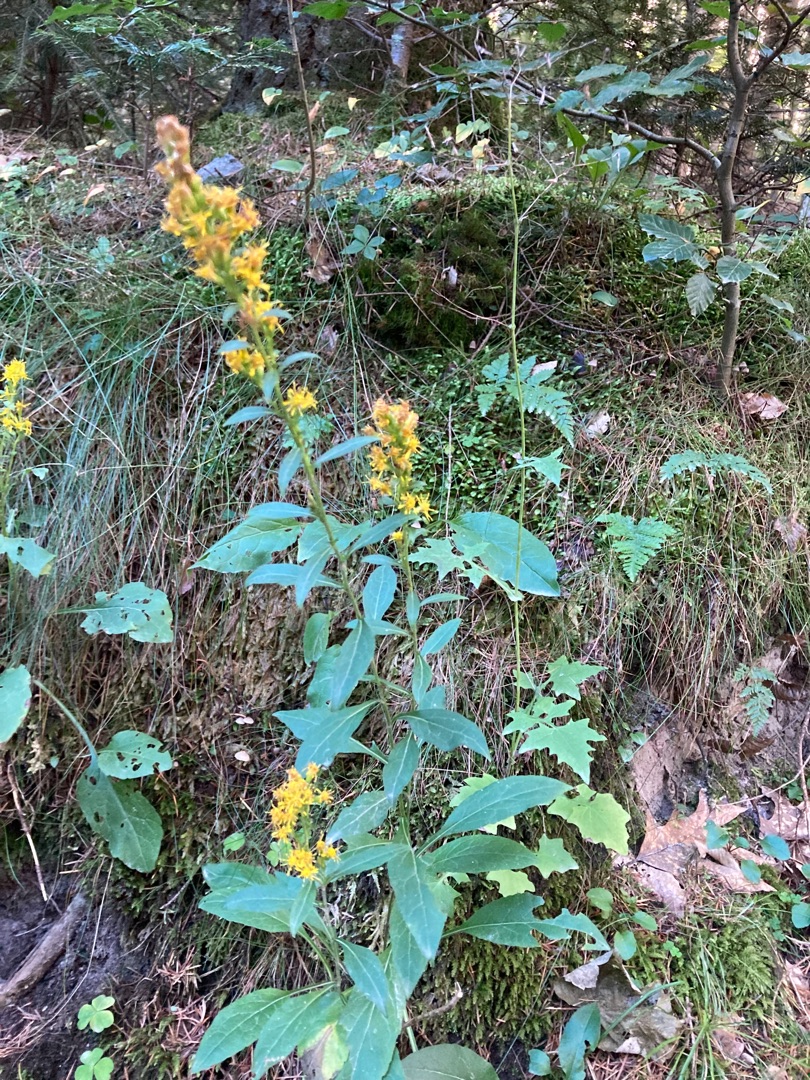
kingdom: Plantae
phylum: Tracheophyta
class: Magnoliopsida
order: Asterales
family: Asteraceae
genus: Solidago
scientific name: Solidago virgaurea
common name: Almindelig gyldenris
